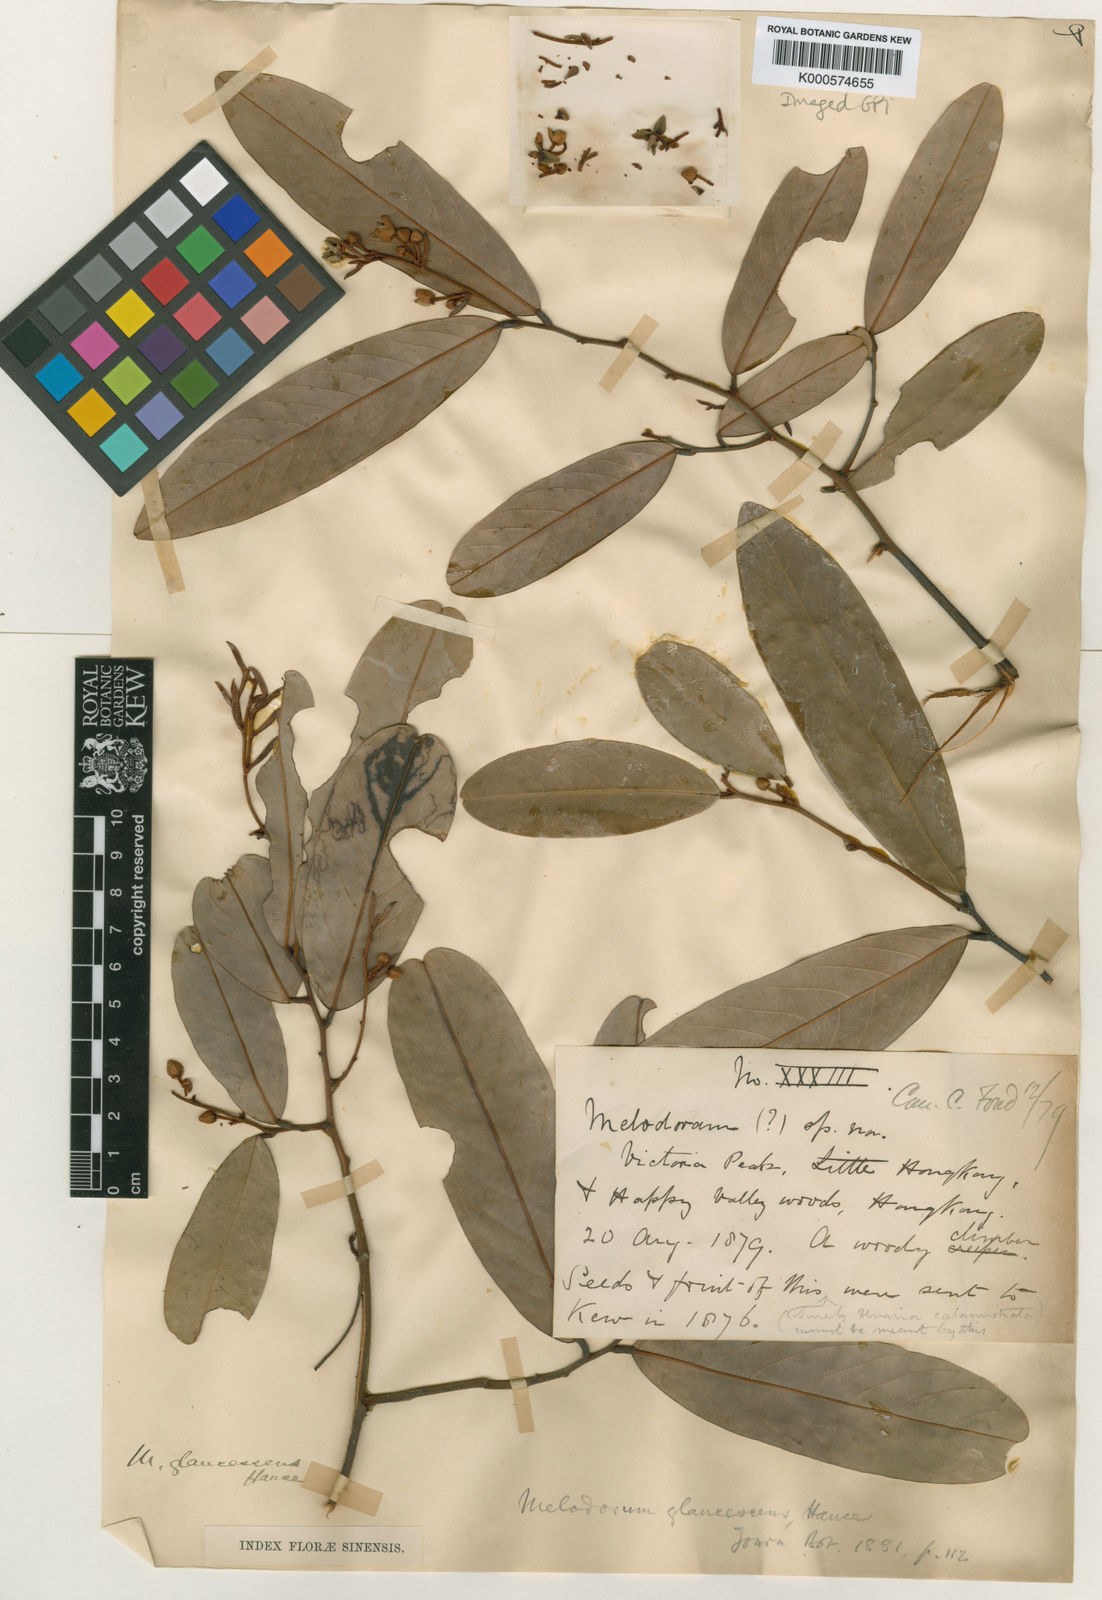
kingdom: Plantae
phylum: Tracheophyta
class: Magnoliopsida
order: Magnoliales
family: Annonaceae
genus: Fissistigma
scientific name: Fissistigma glaucescens
